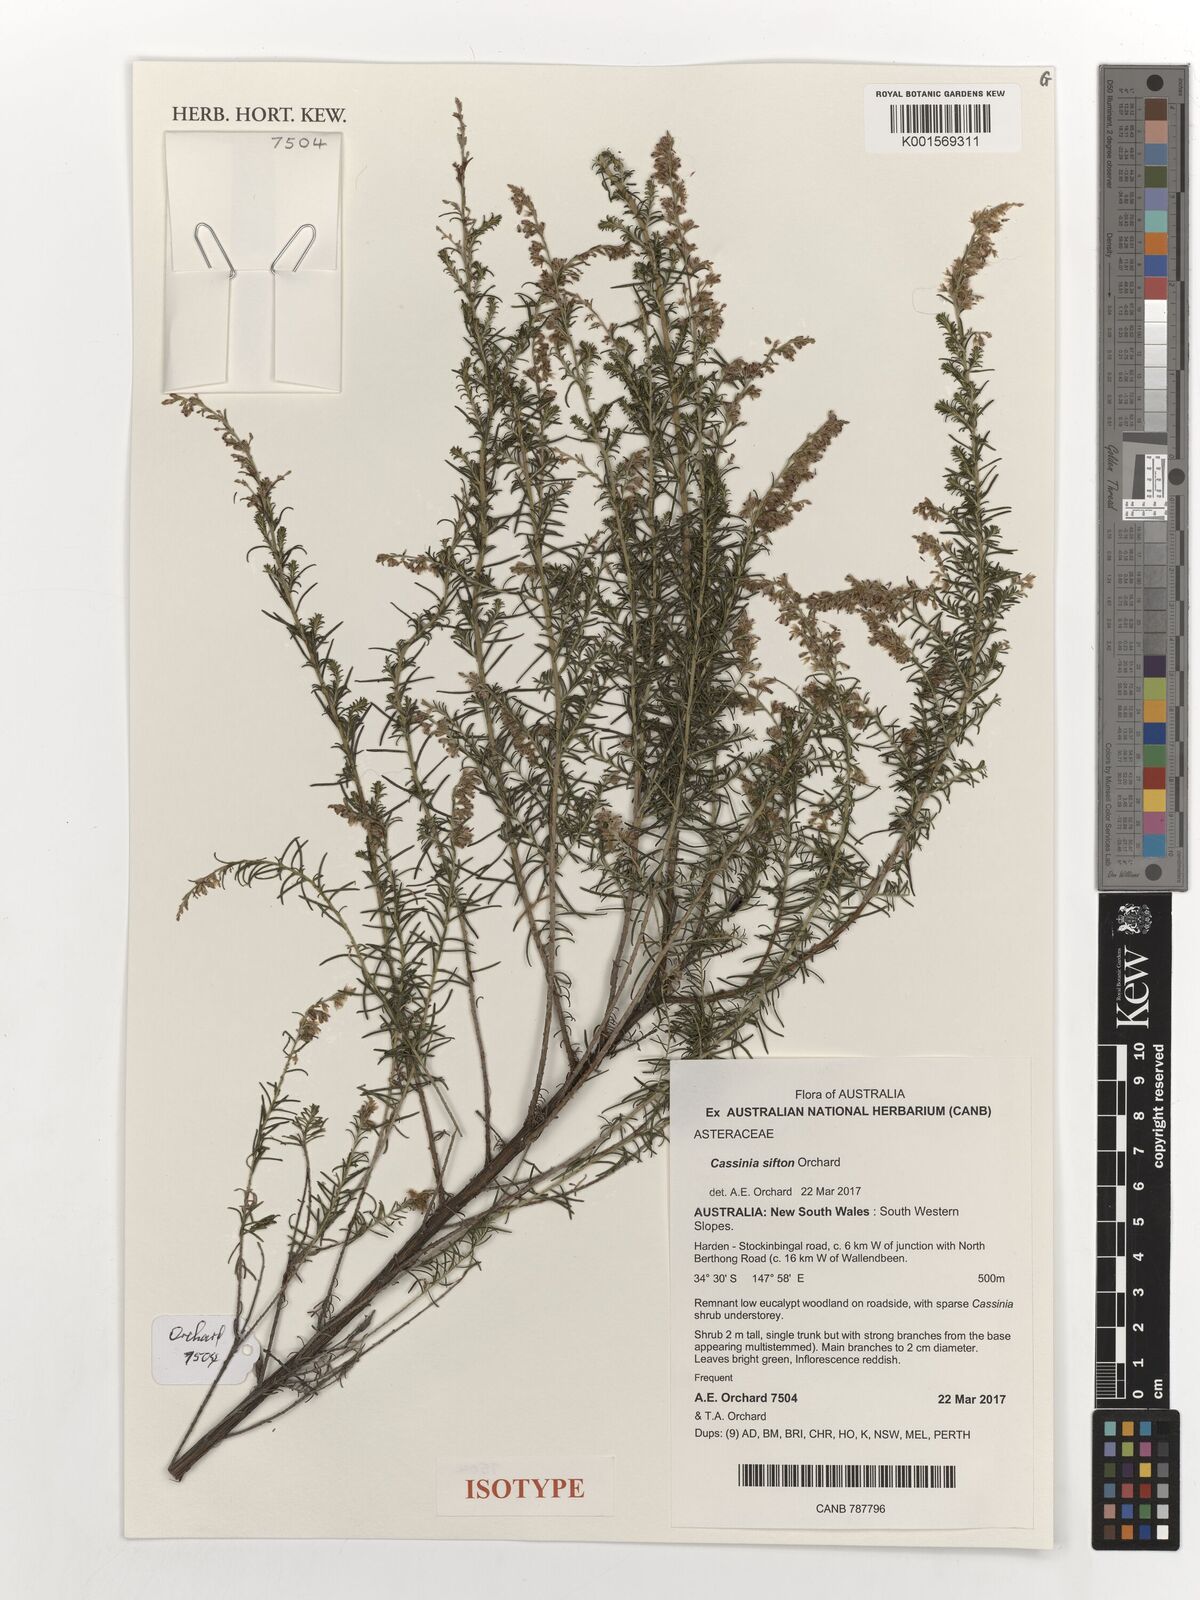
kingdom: Plantae
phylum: Tracheophyta
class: Magnoliopsida
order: Asterales
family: Asteraceae
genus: Cassinia
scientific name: Cassinia sifton
